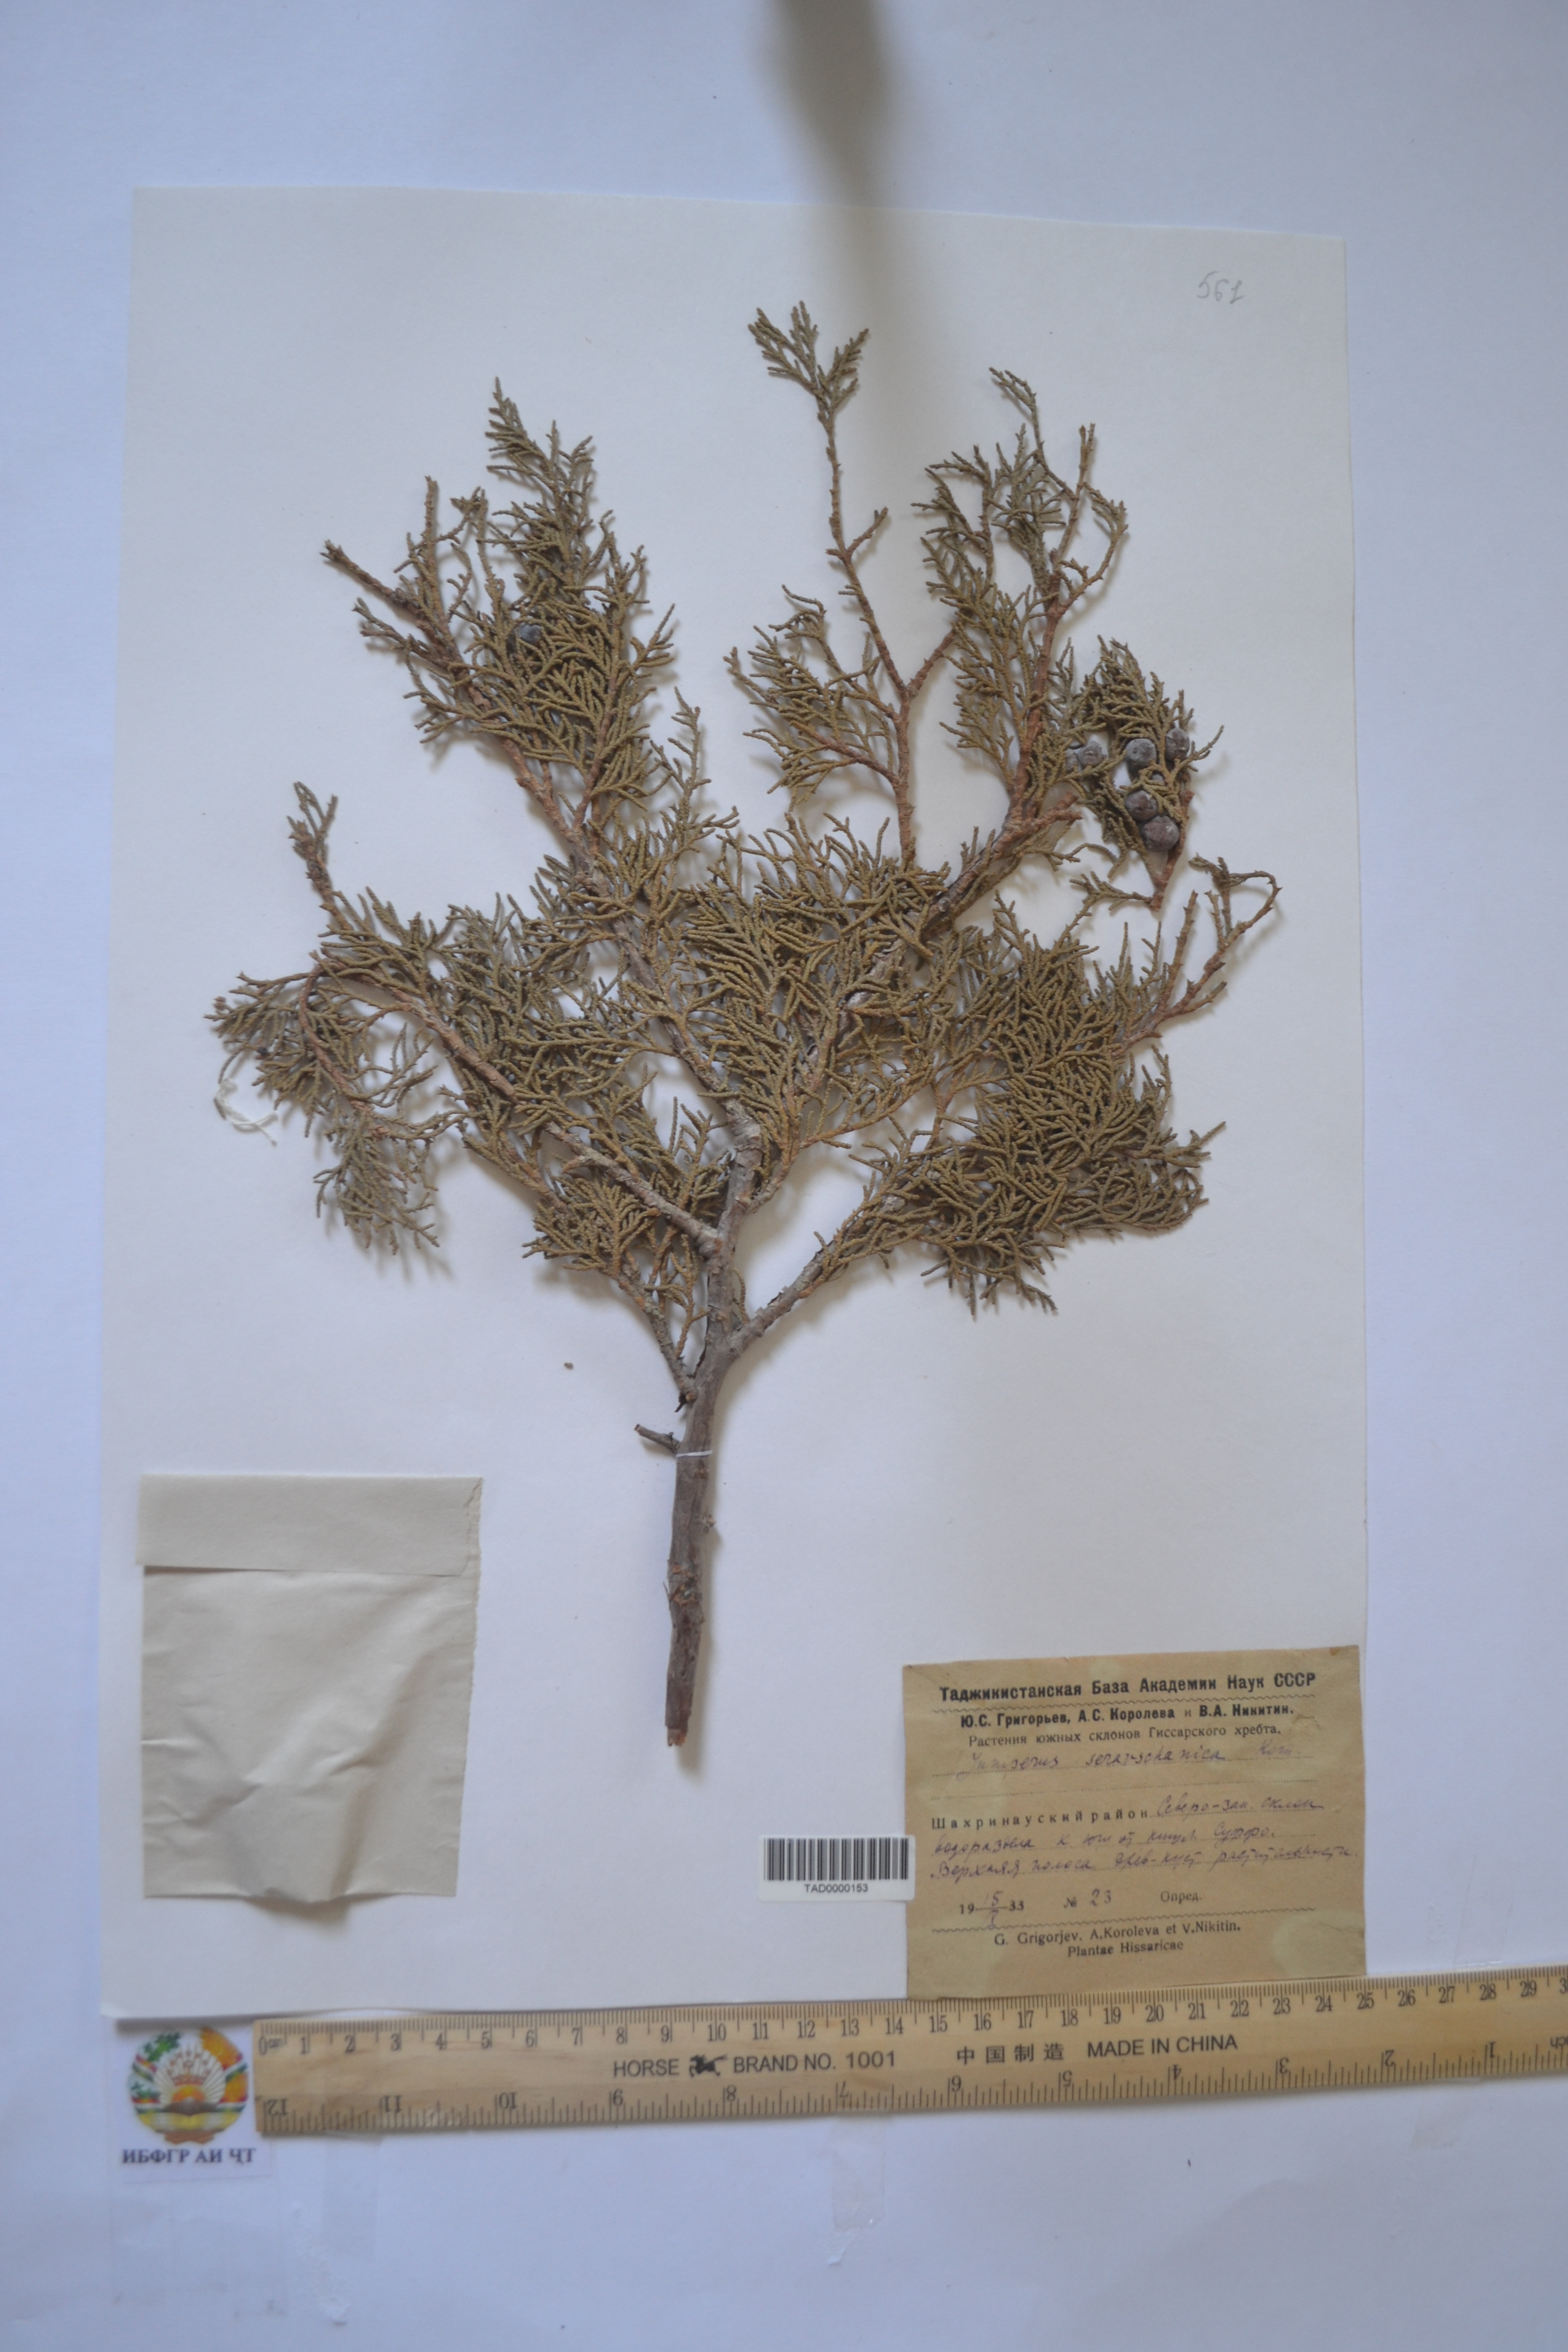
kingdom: Plantae
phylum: Tracheophyta
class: Pinopsida
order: Pinales
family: Cupressaceae
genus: Juniperus
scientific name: Juniperus excelsa
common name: Crimean juniper
